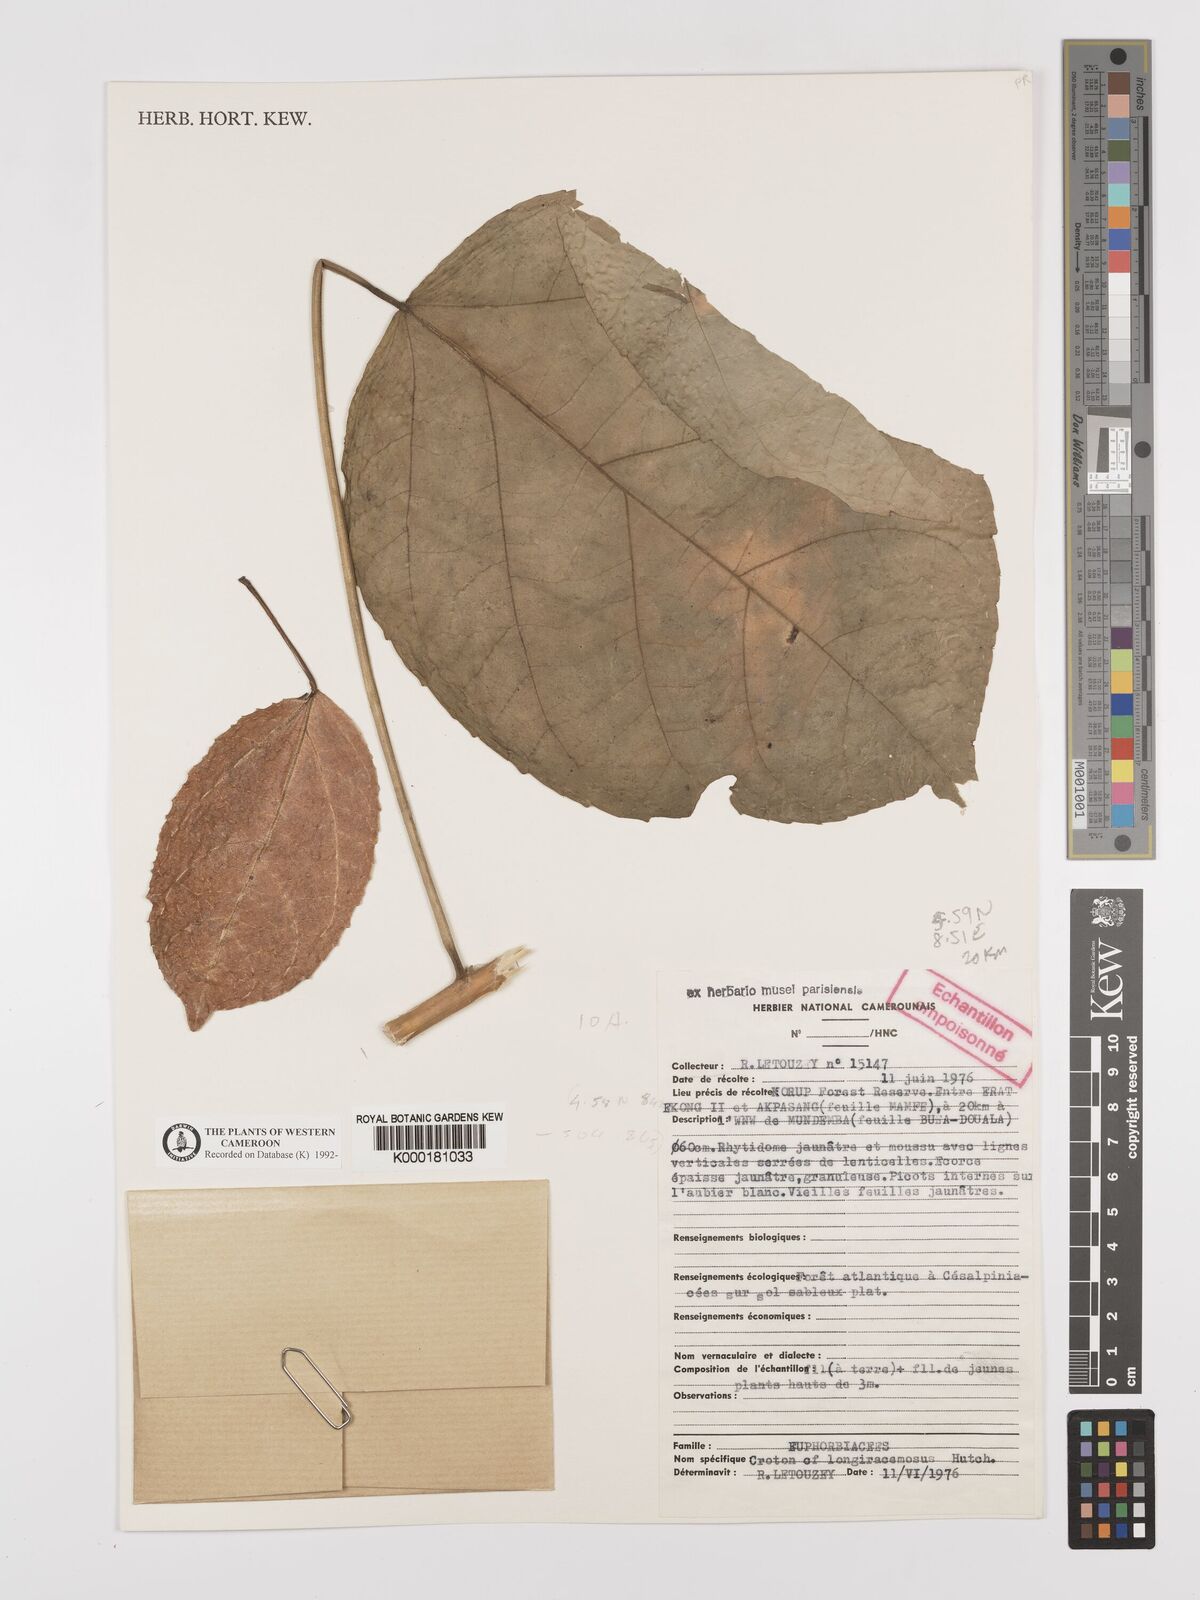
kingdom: Plantae
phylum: Tracheophyta
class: Magnoliopsida
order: Malpighiales
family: Euphorbiaceae
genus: Croton
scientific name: Croton longiracemosus
